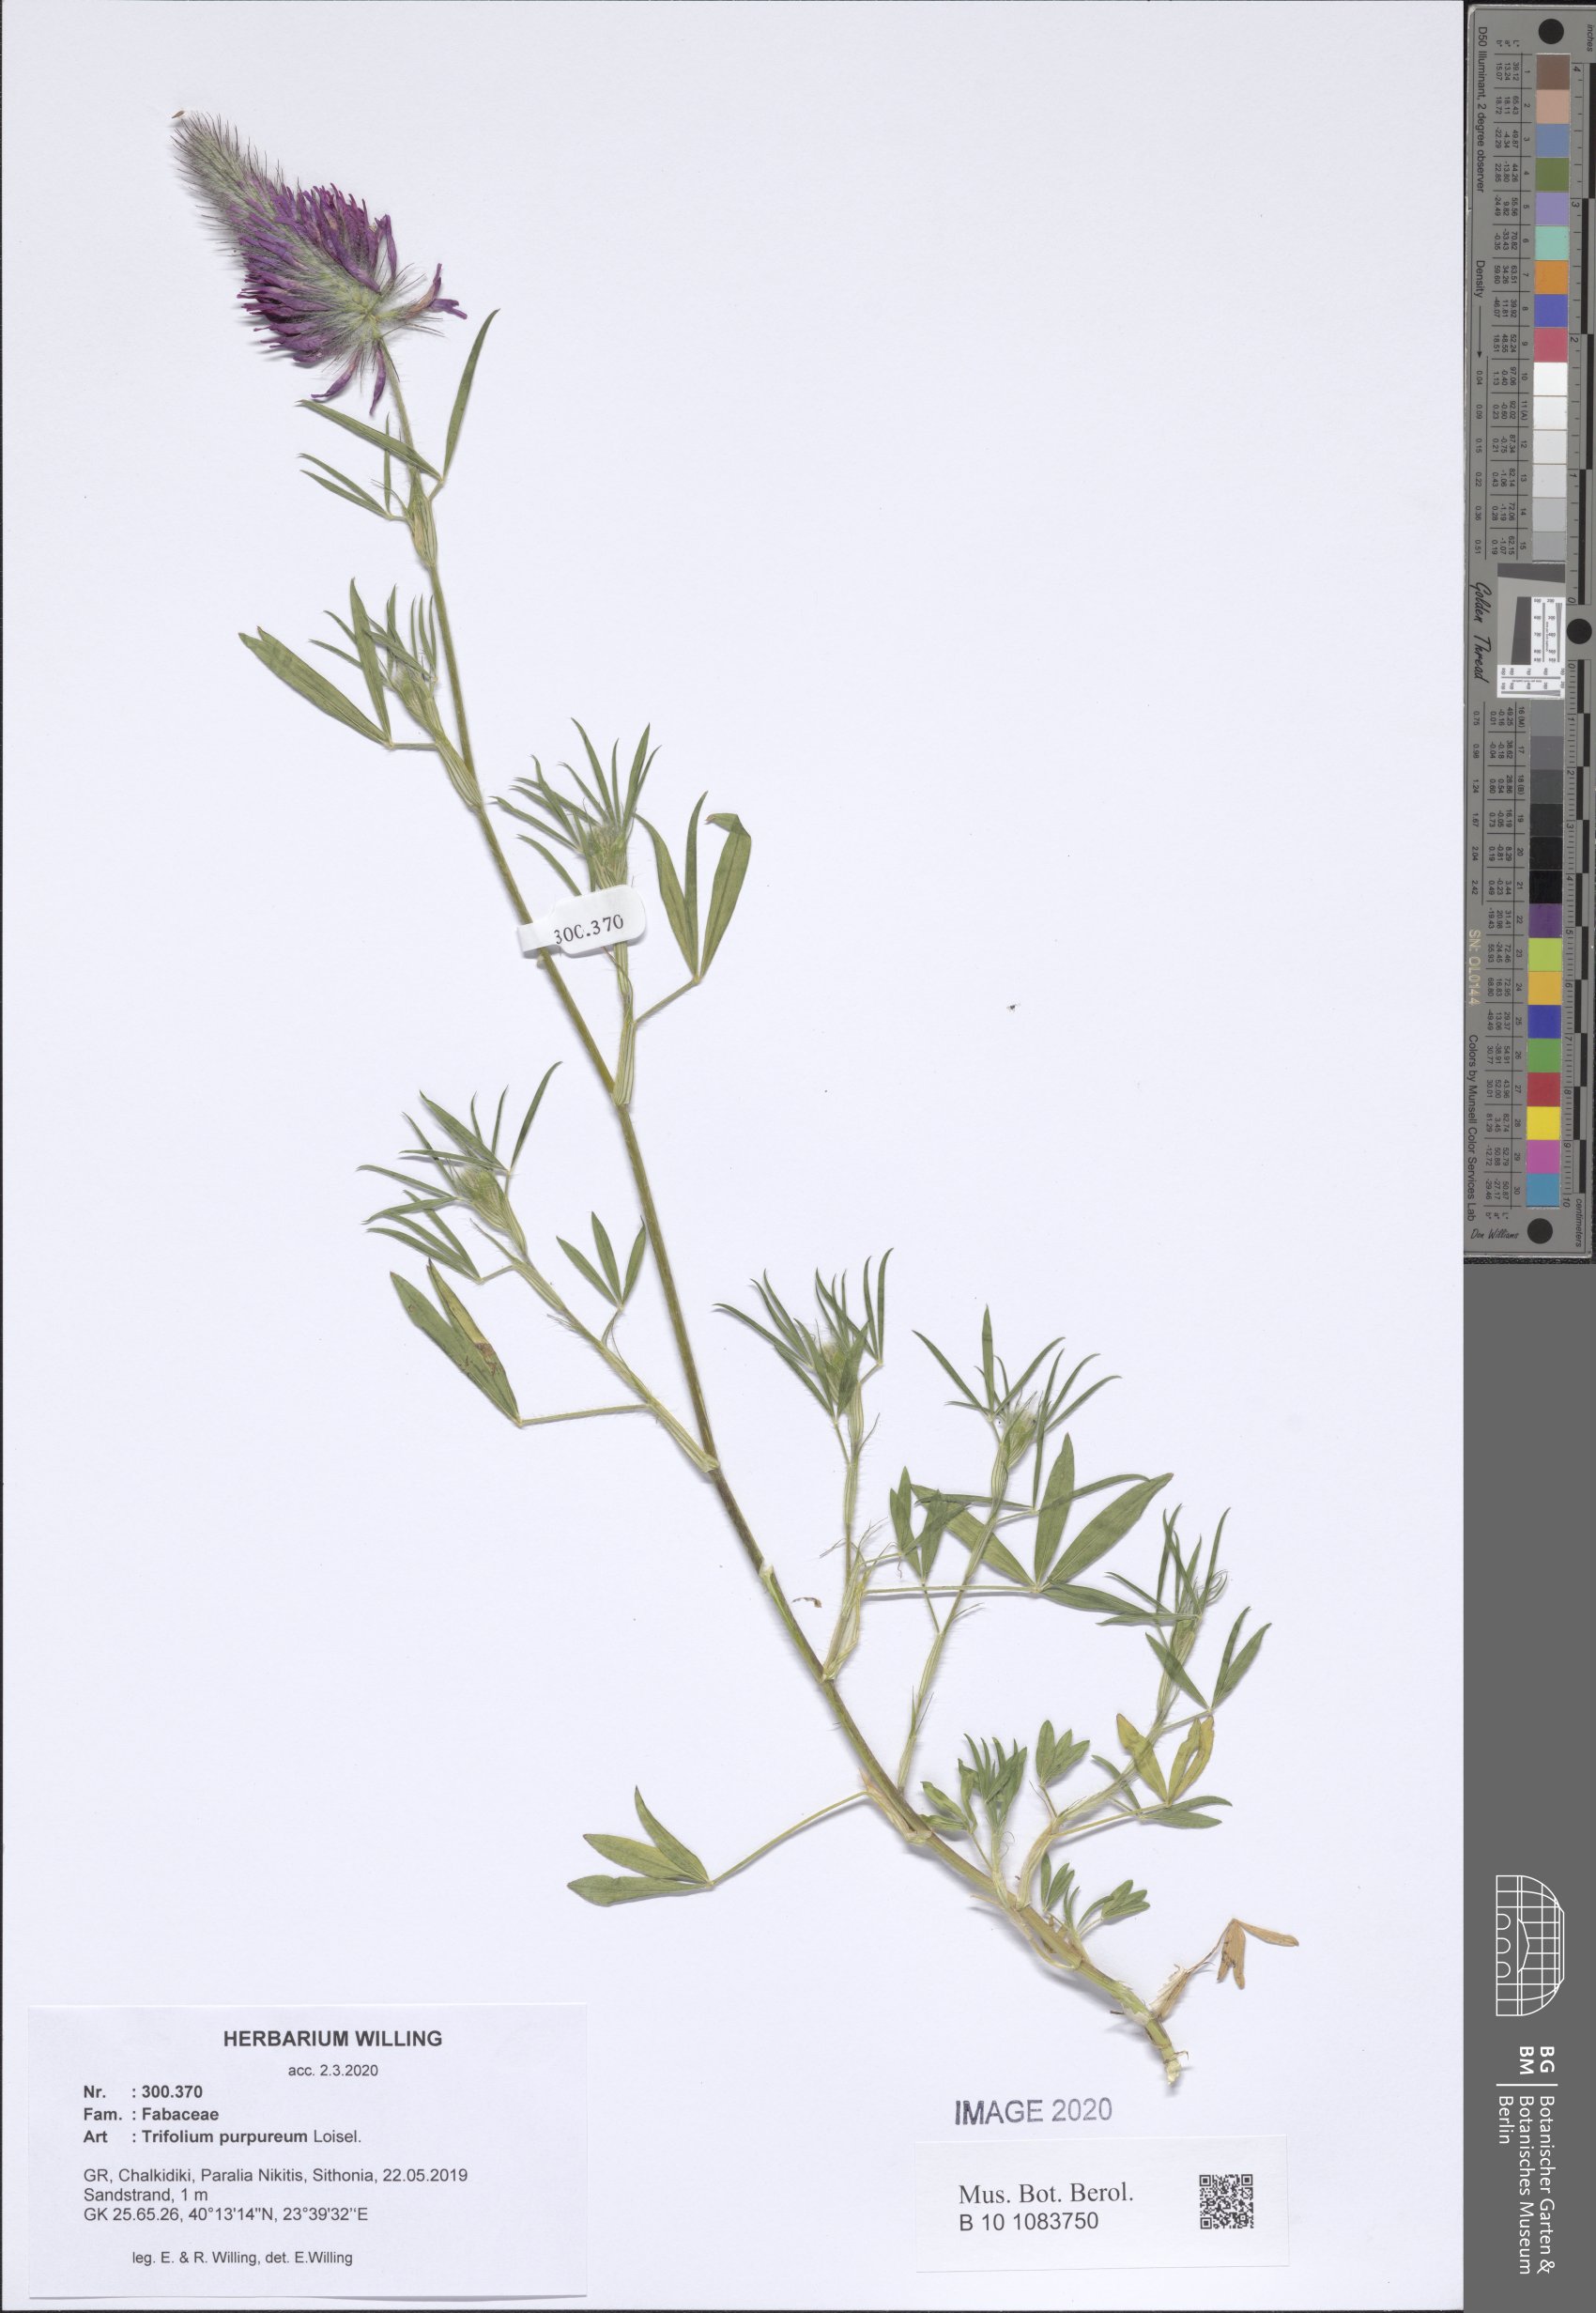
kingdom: Plantae
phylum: Tracheophyta
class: Magnoliopsida
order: Fabales
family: Fabaceae
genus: Trifolium
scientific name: Trifolium purpureum
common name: Purple clover
